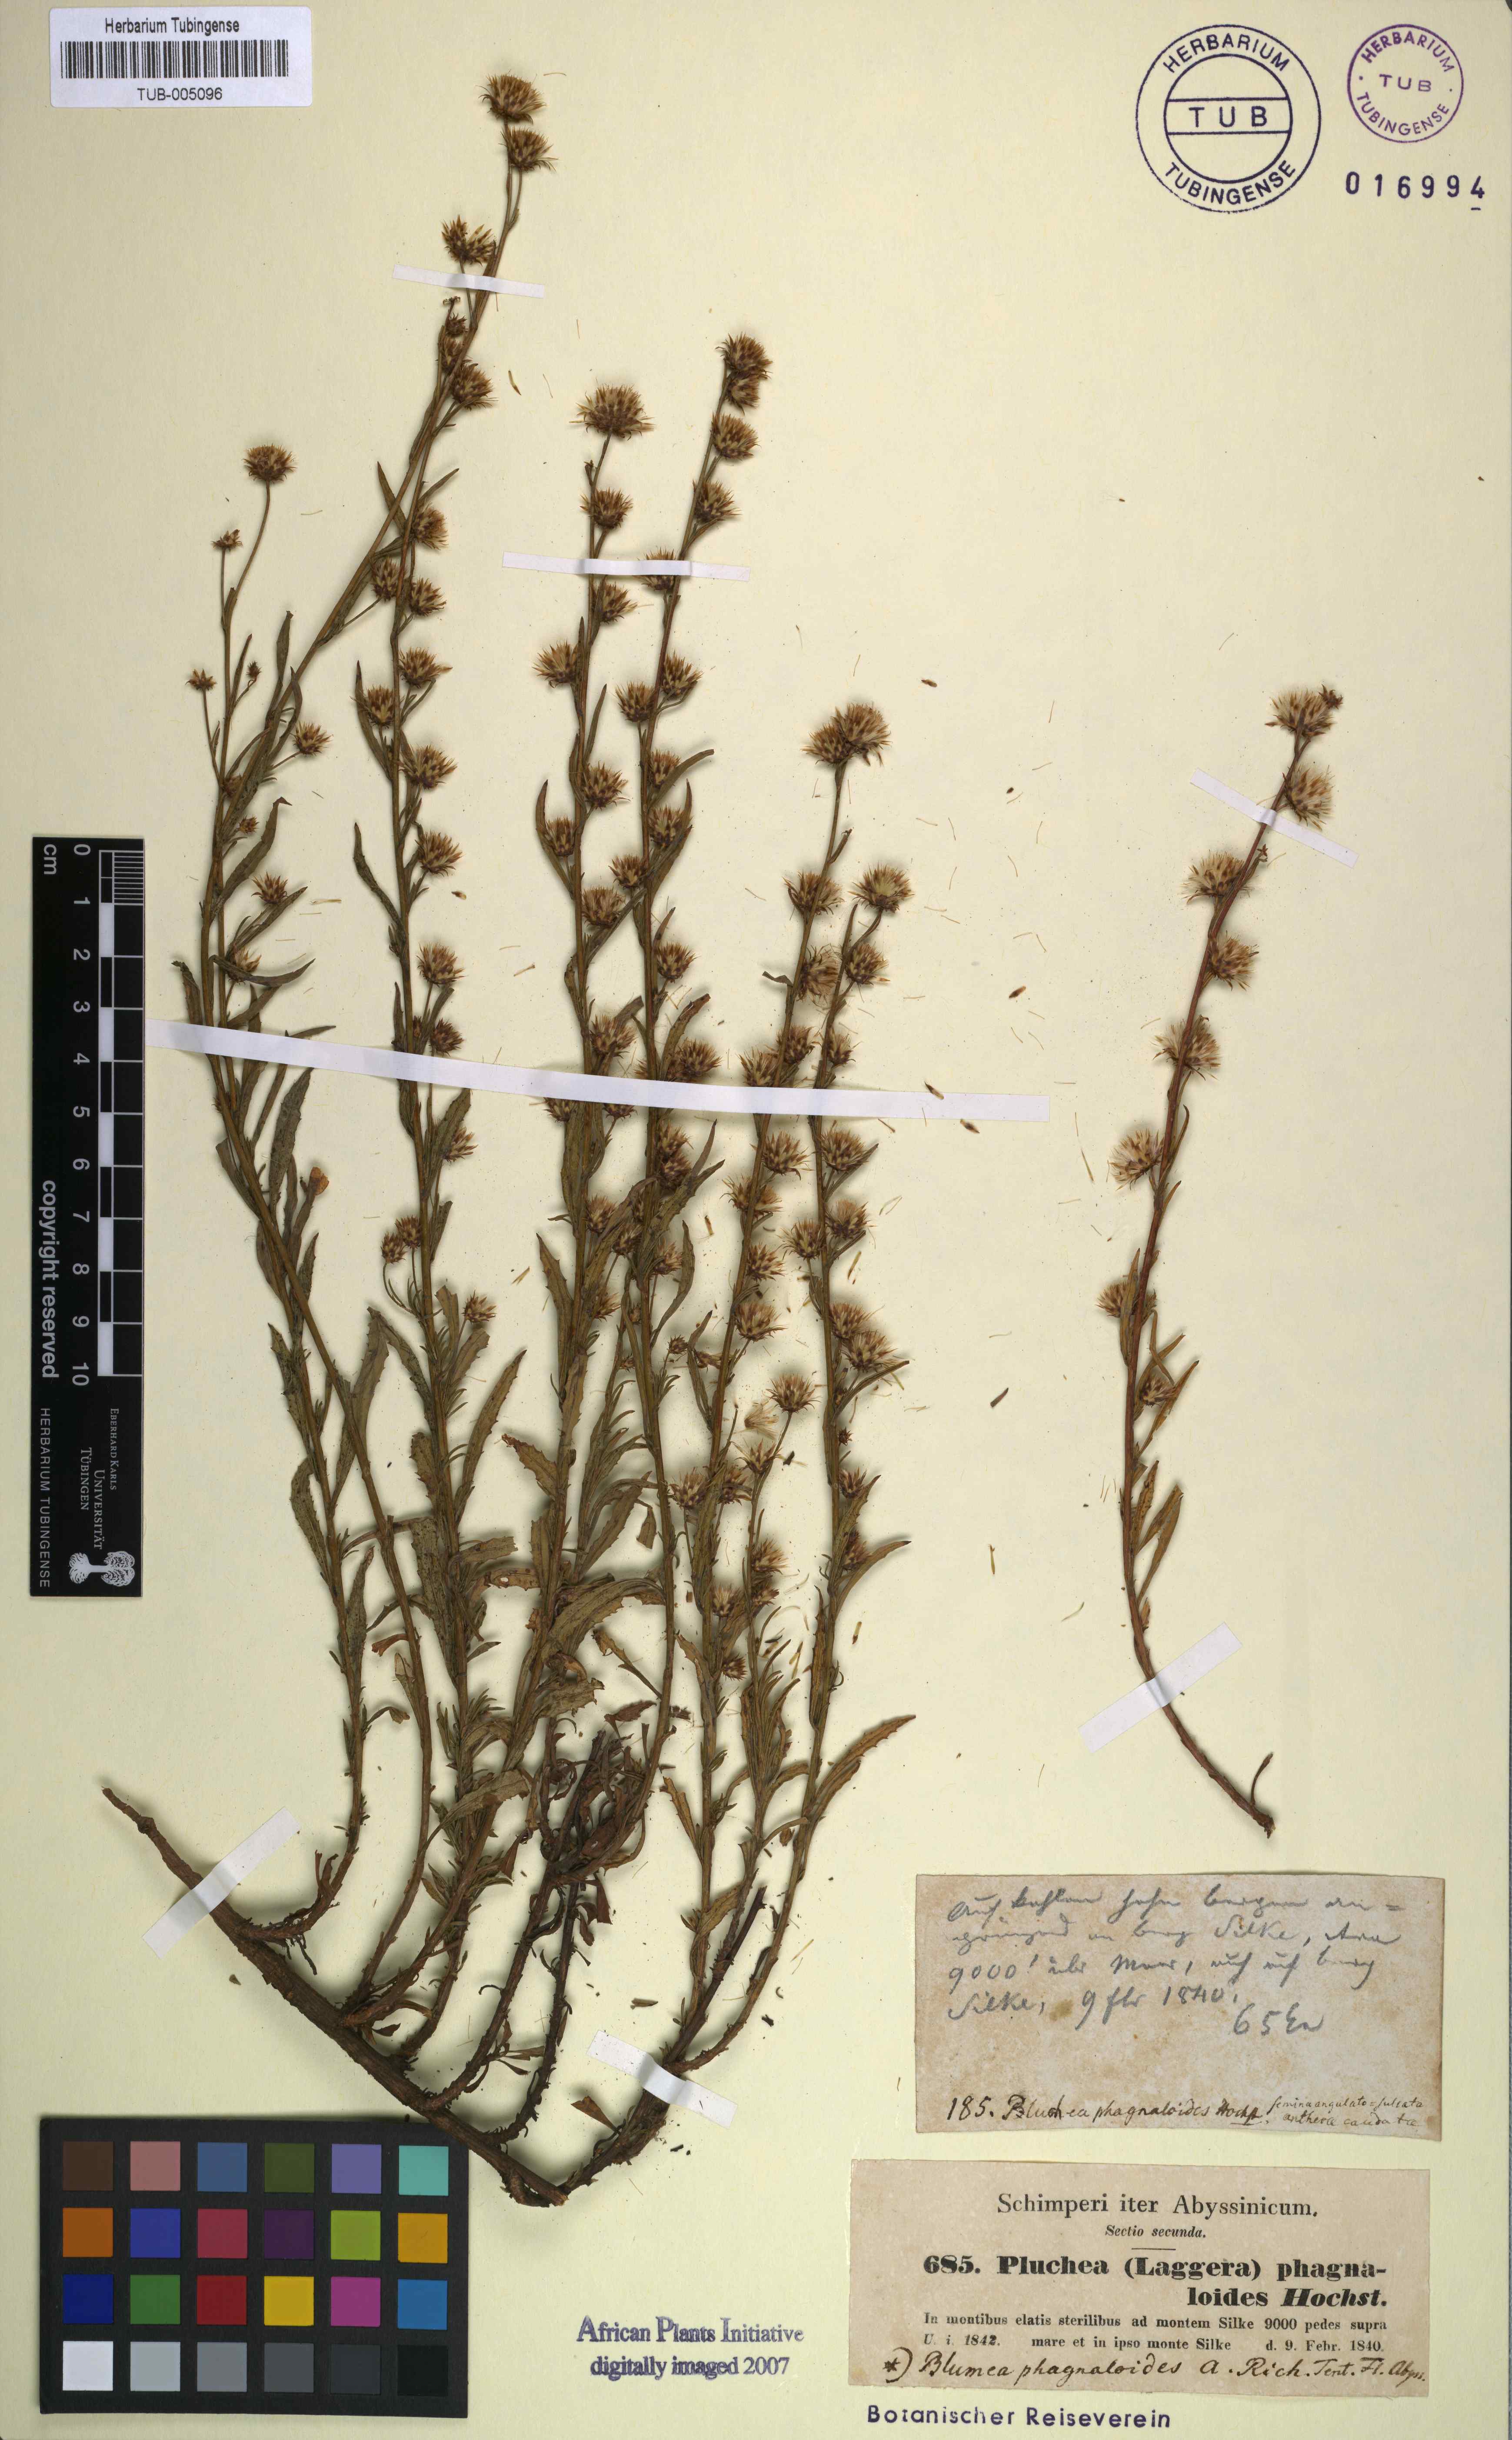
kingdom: Plantae
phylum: Tracheophyta
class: Magnoliopsida
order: Asterales
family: Asteraceae
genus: Phagnalon
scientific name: Phagnalon phagnaloides
